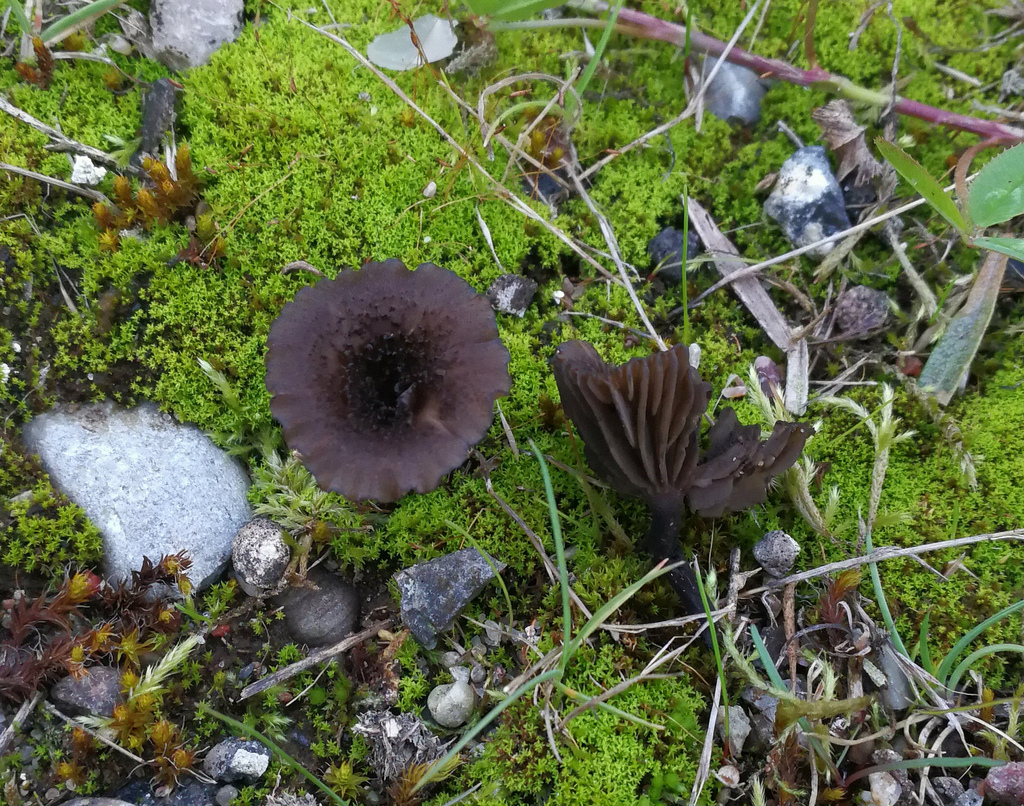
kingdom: Fungi
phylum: Basidiomycota
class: Agaricomycetes
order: Agaricales
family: Tricholomataceae
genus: Melanomphalia
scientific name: Melanomphalia nigrescens
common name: sørgehat
